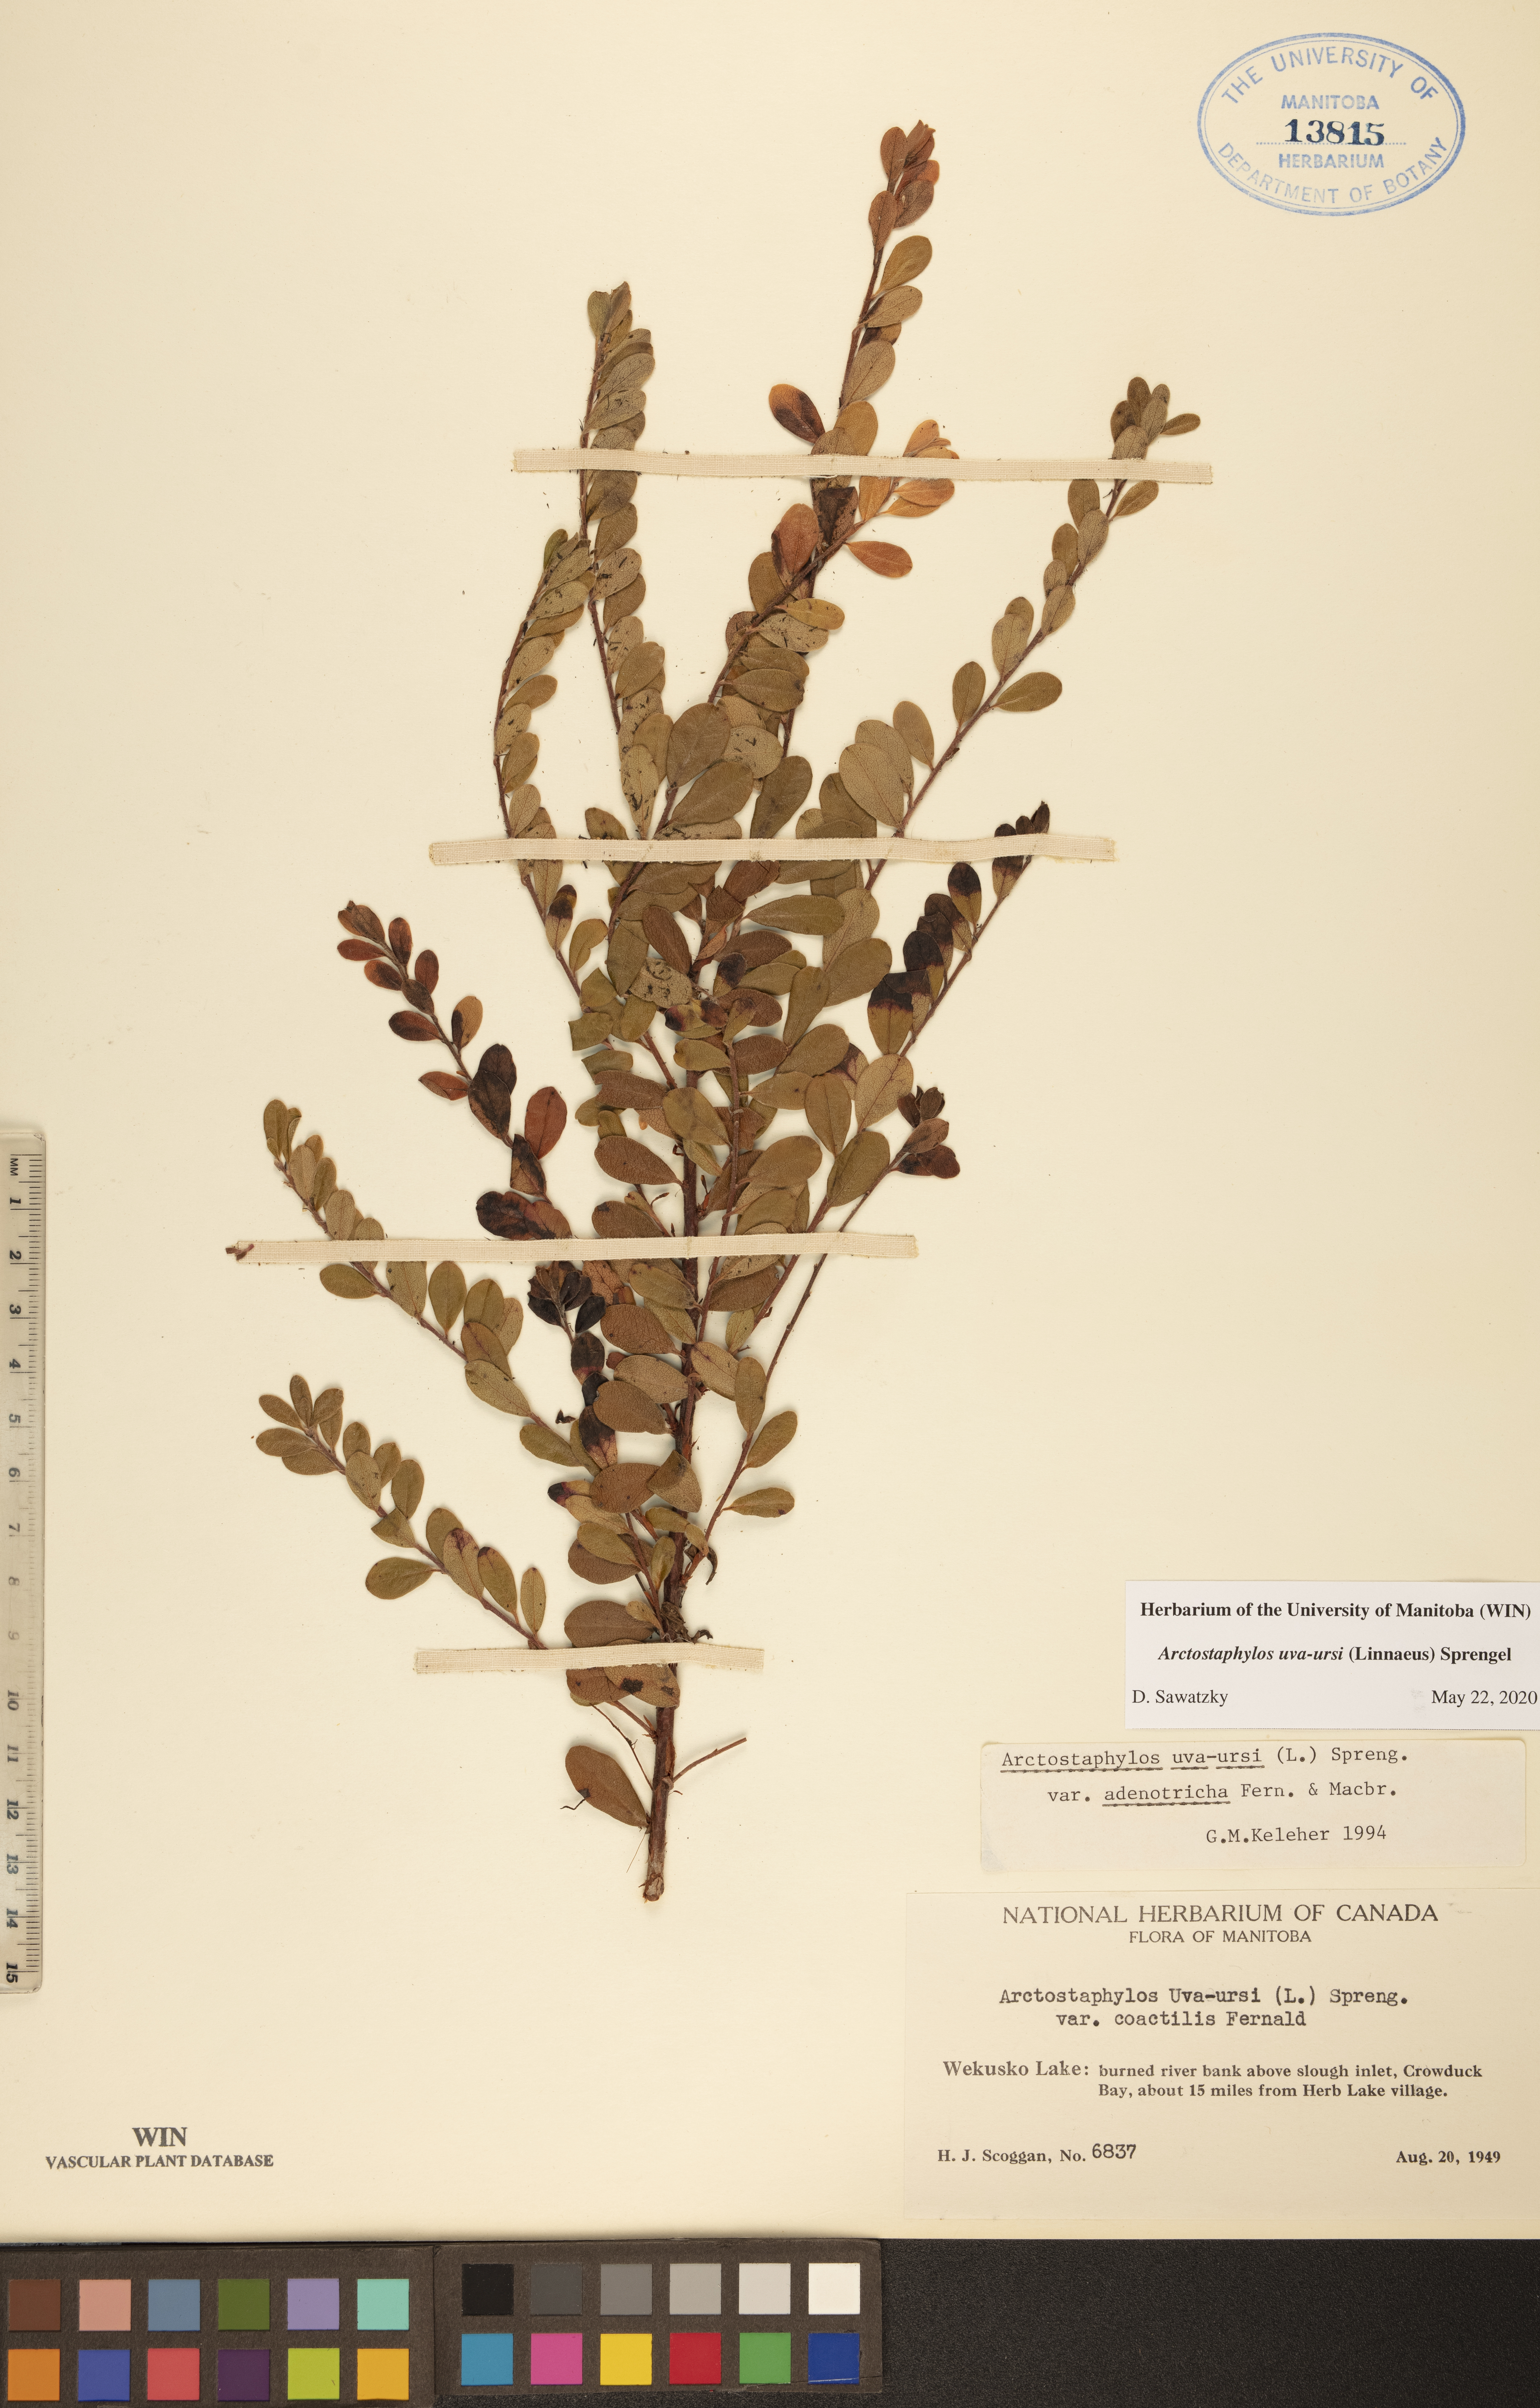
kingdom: Plantae
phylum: Tracheophyta
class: Magnoliopsida
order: Ericales
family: Ericaceae
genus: Arctostaphylos
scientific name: Arctostaphylos uva-ursi
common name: Bearberry
